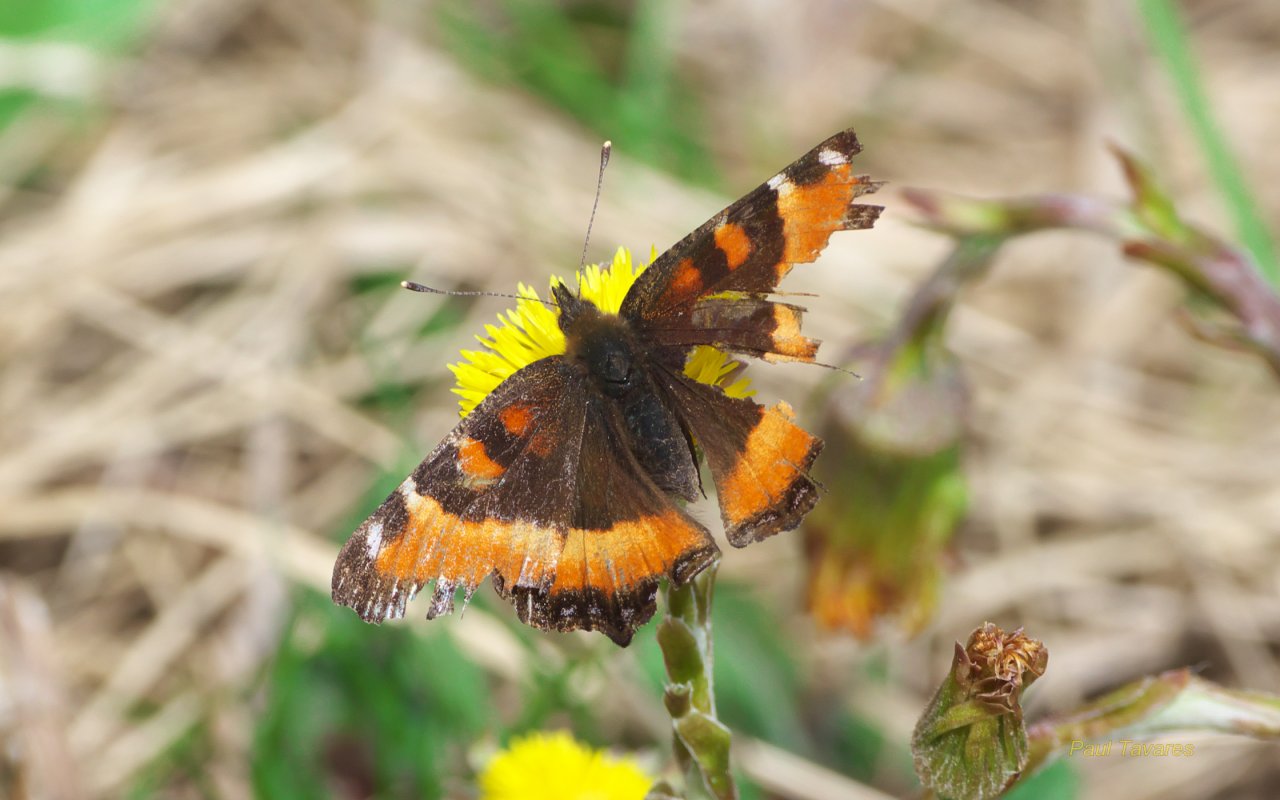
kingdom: Animalia
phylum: Arthropoda
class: Insecta
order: Lepidoptera
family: Nymphalidae
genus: Aglais
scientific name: Aglais milberti
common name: Milbert's Tortoiseshell
